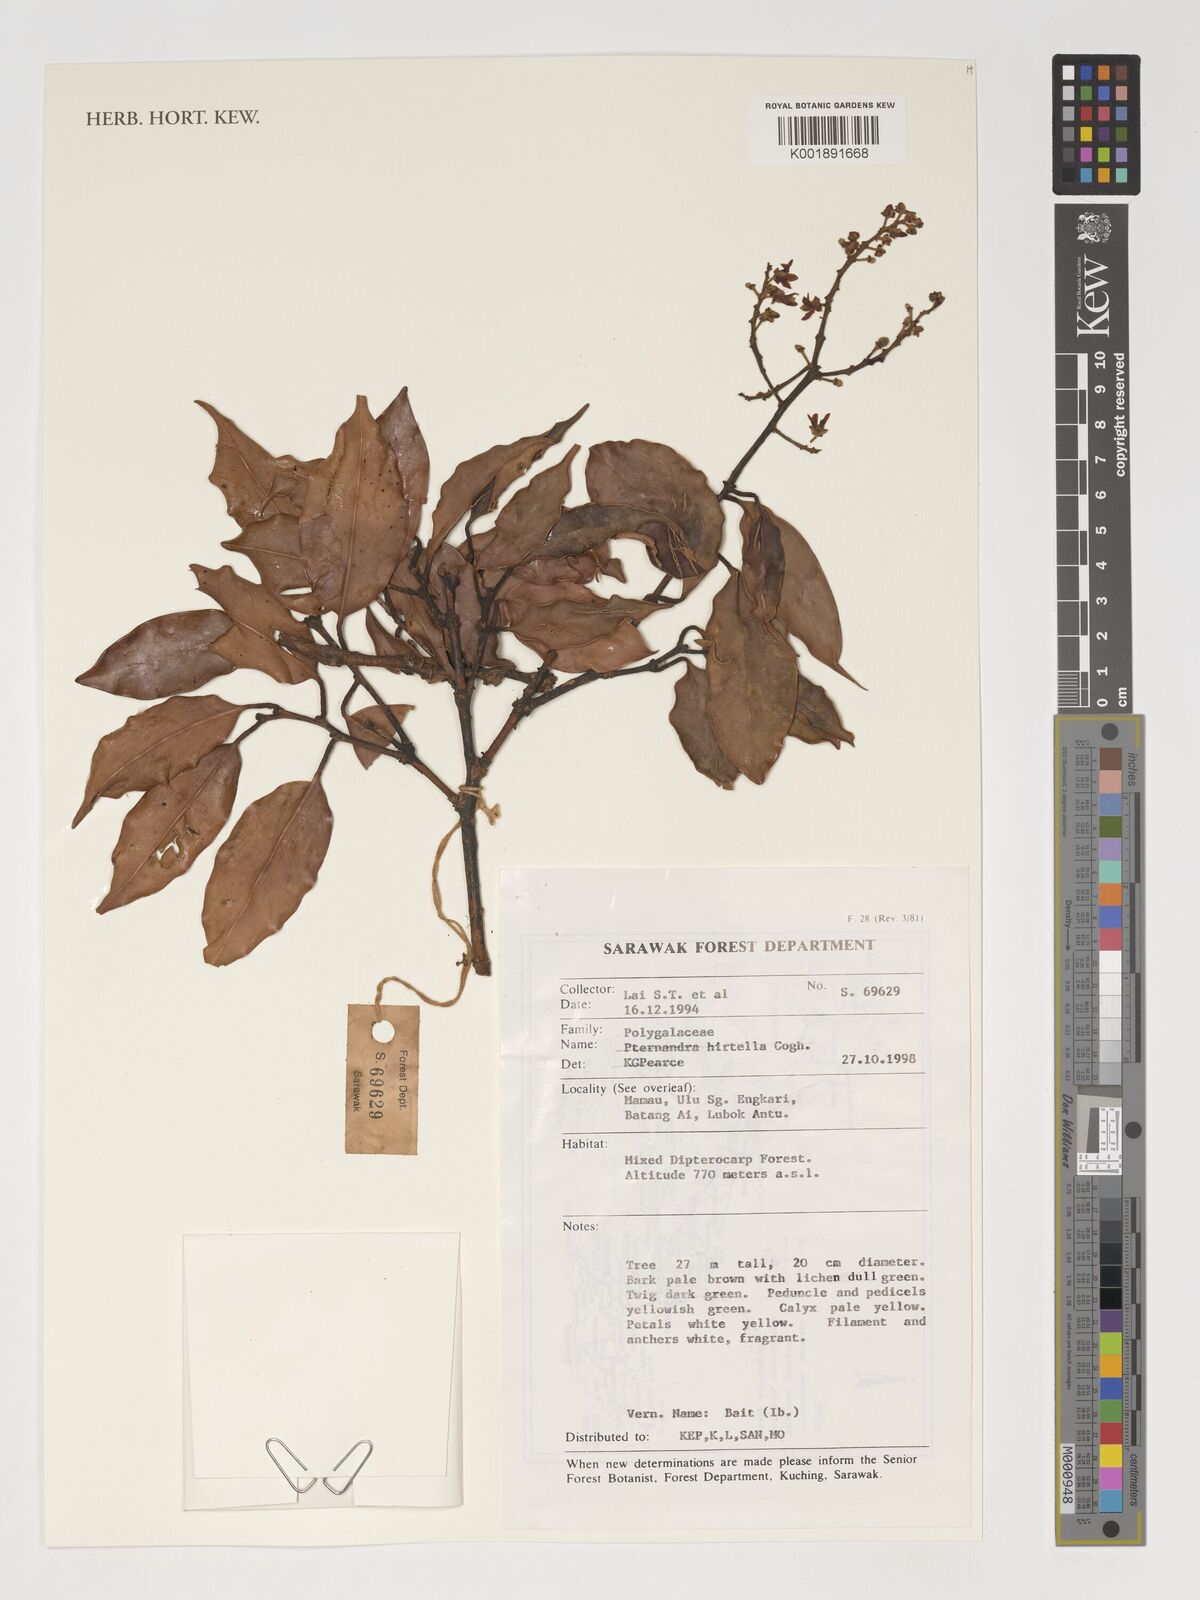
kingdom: Plantae
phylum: Tracheophyta
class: Magnoliopsida
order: Myrtales
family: Melastomataceae
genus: Pternandra
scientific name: Pternandra hirtella
